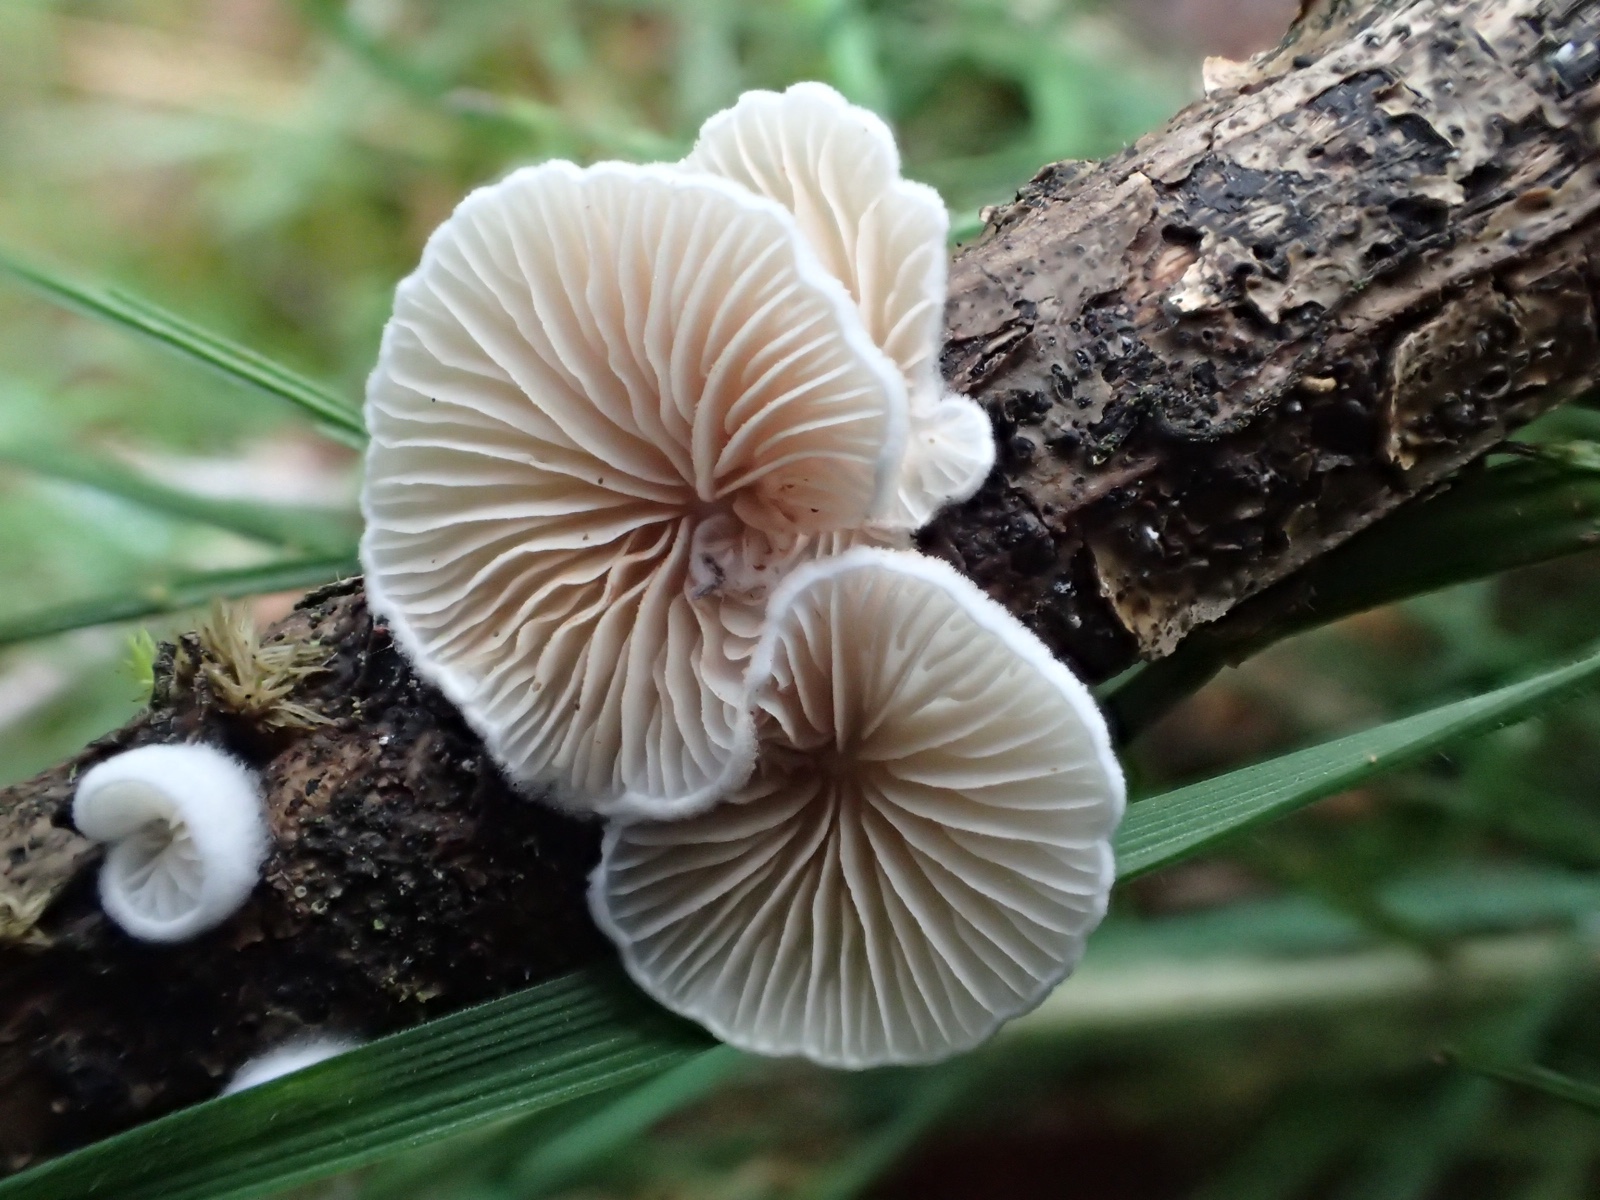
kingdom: Fungi
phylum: Basidiomycota
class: Agaricomycetes
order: Agaricales
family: Crepidotaceae
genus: Crepidotus
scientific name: Crepidotus
